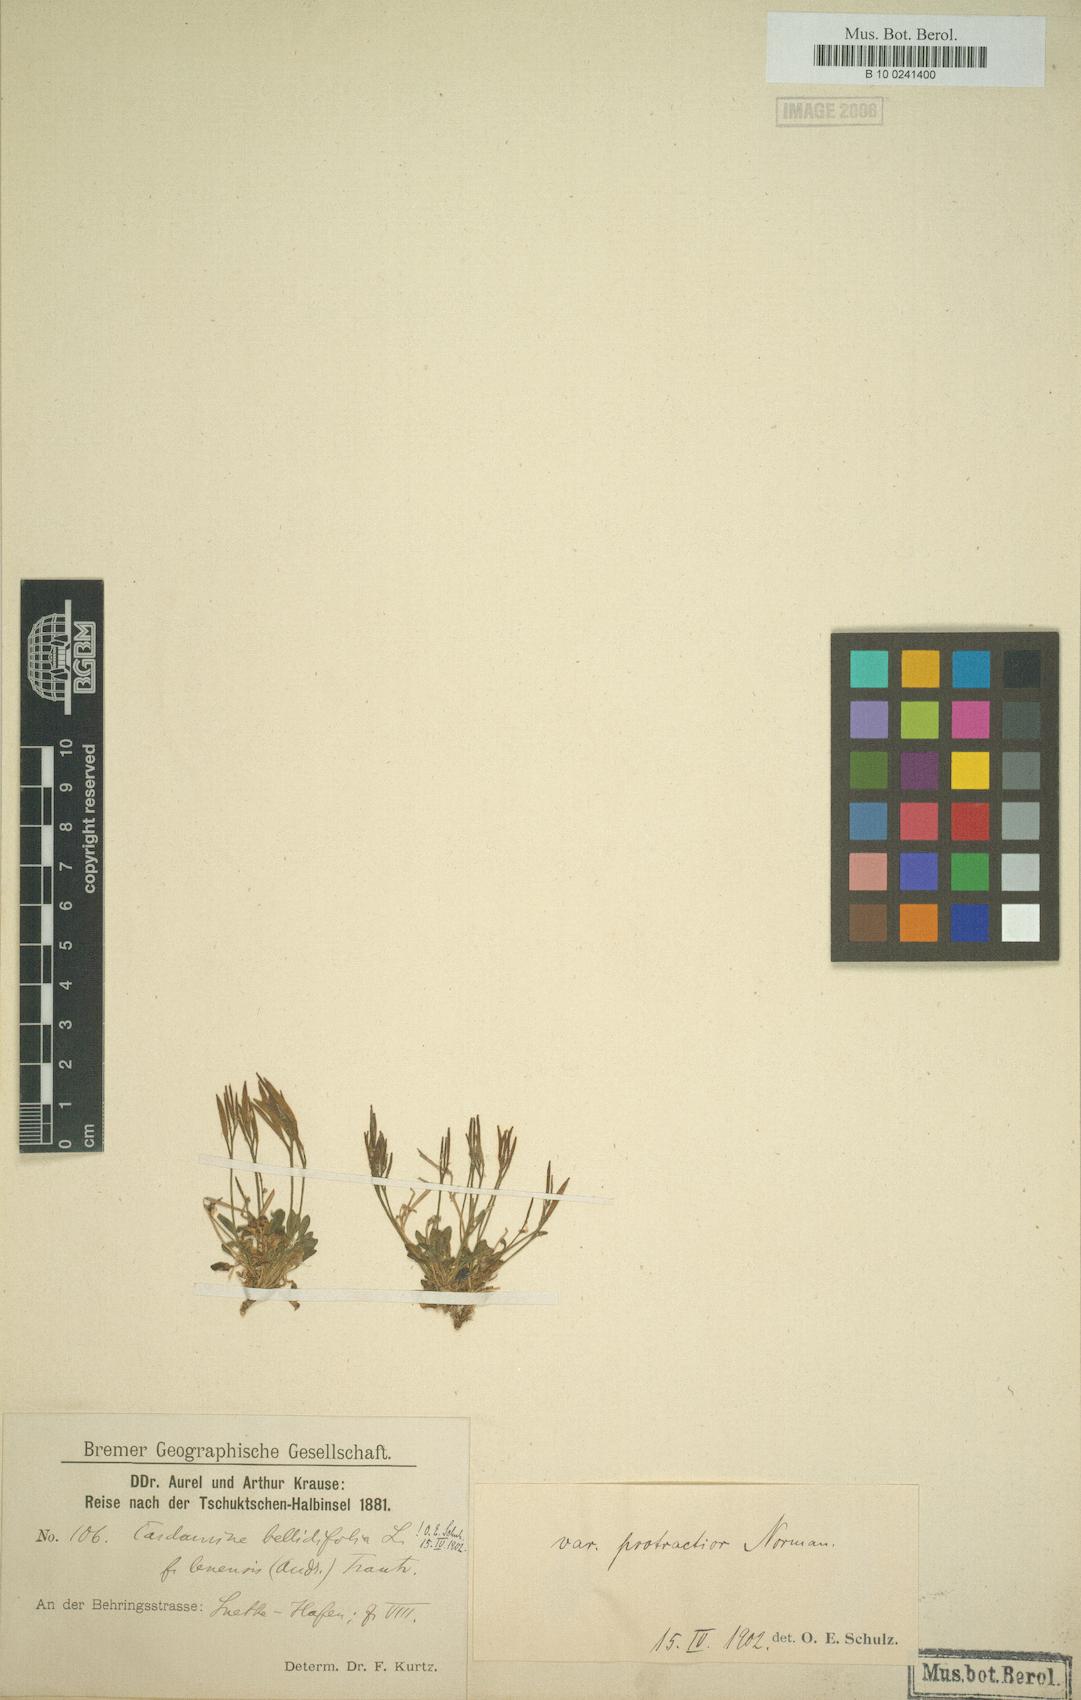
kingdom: Plantae
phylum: Tracheophyta
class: Magnoliopsida
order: Brassicales
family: Brassicaceae
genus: Cardamine
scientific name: Cardamine bellidifolia
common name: Alpine bittercress
